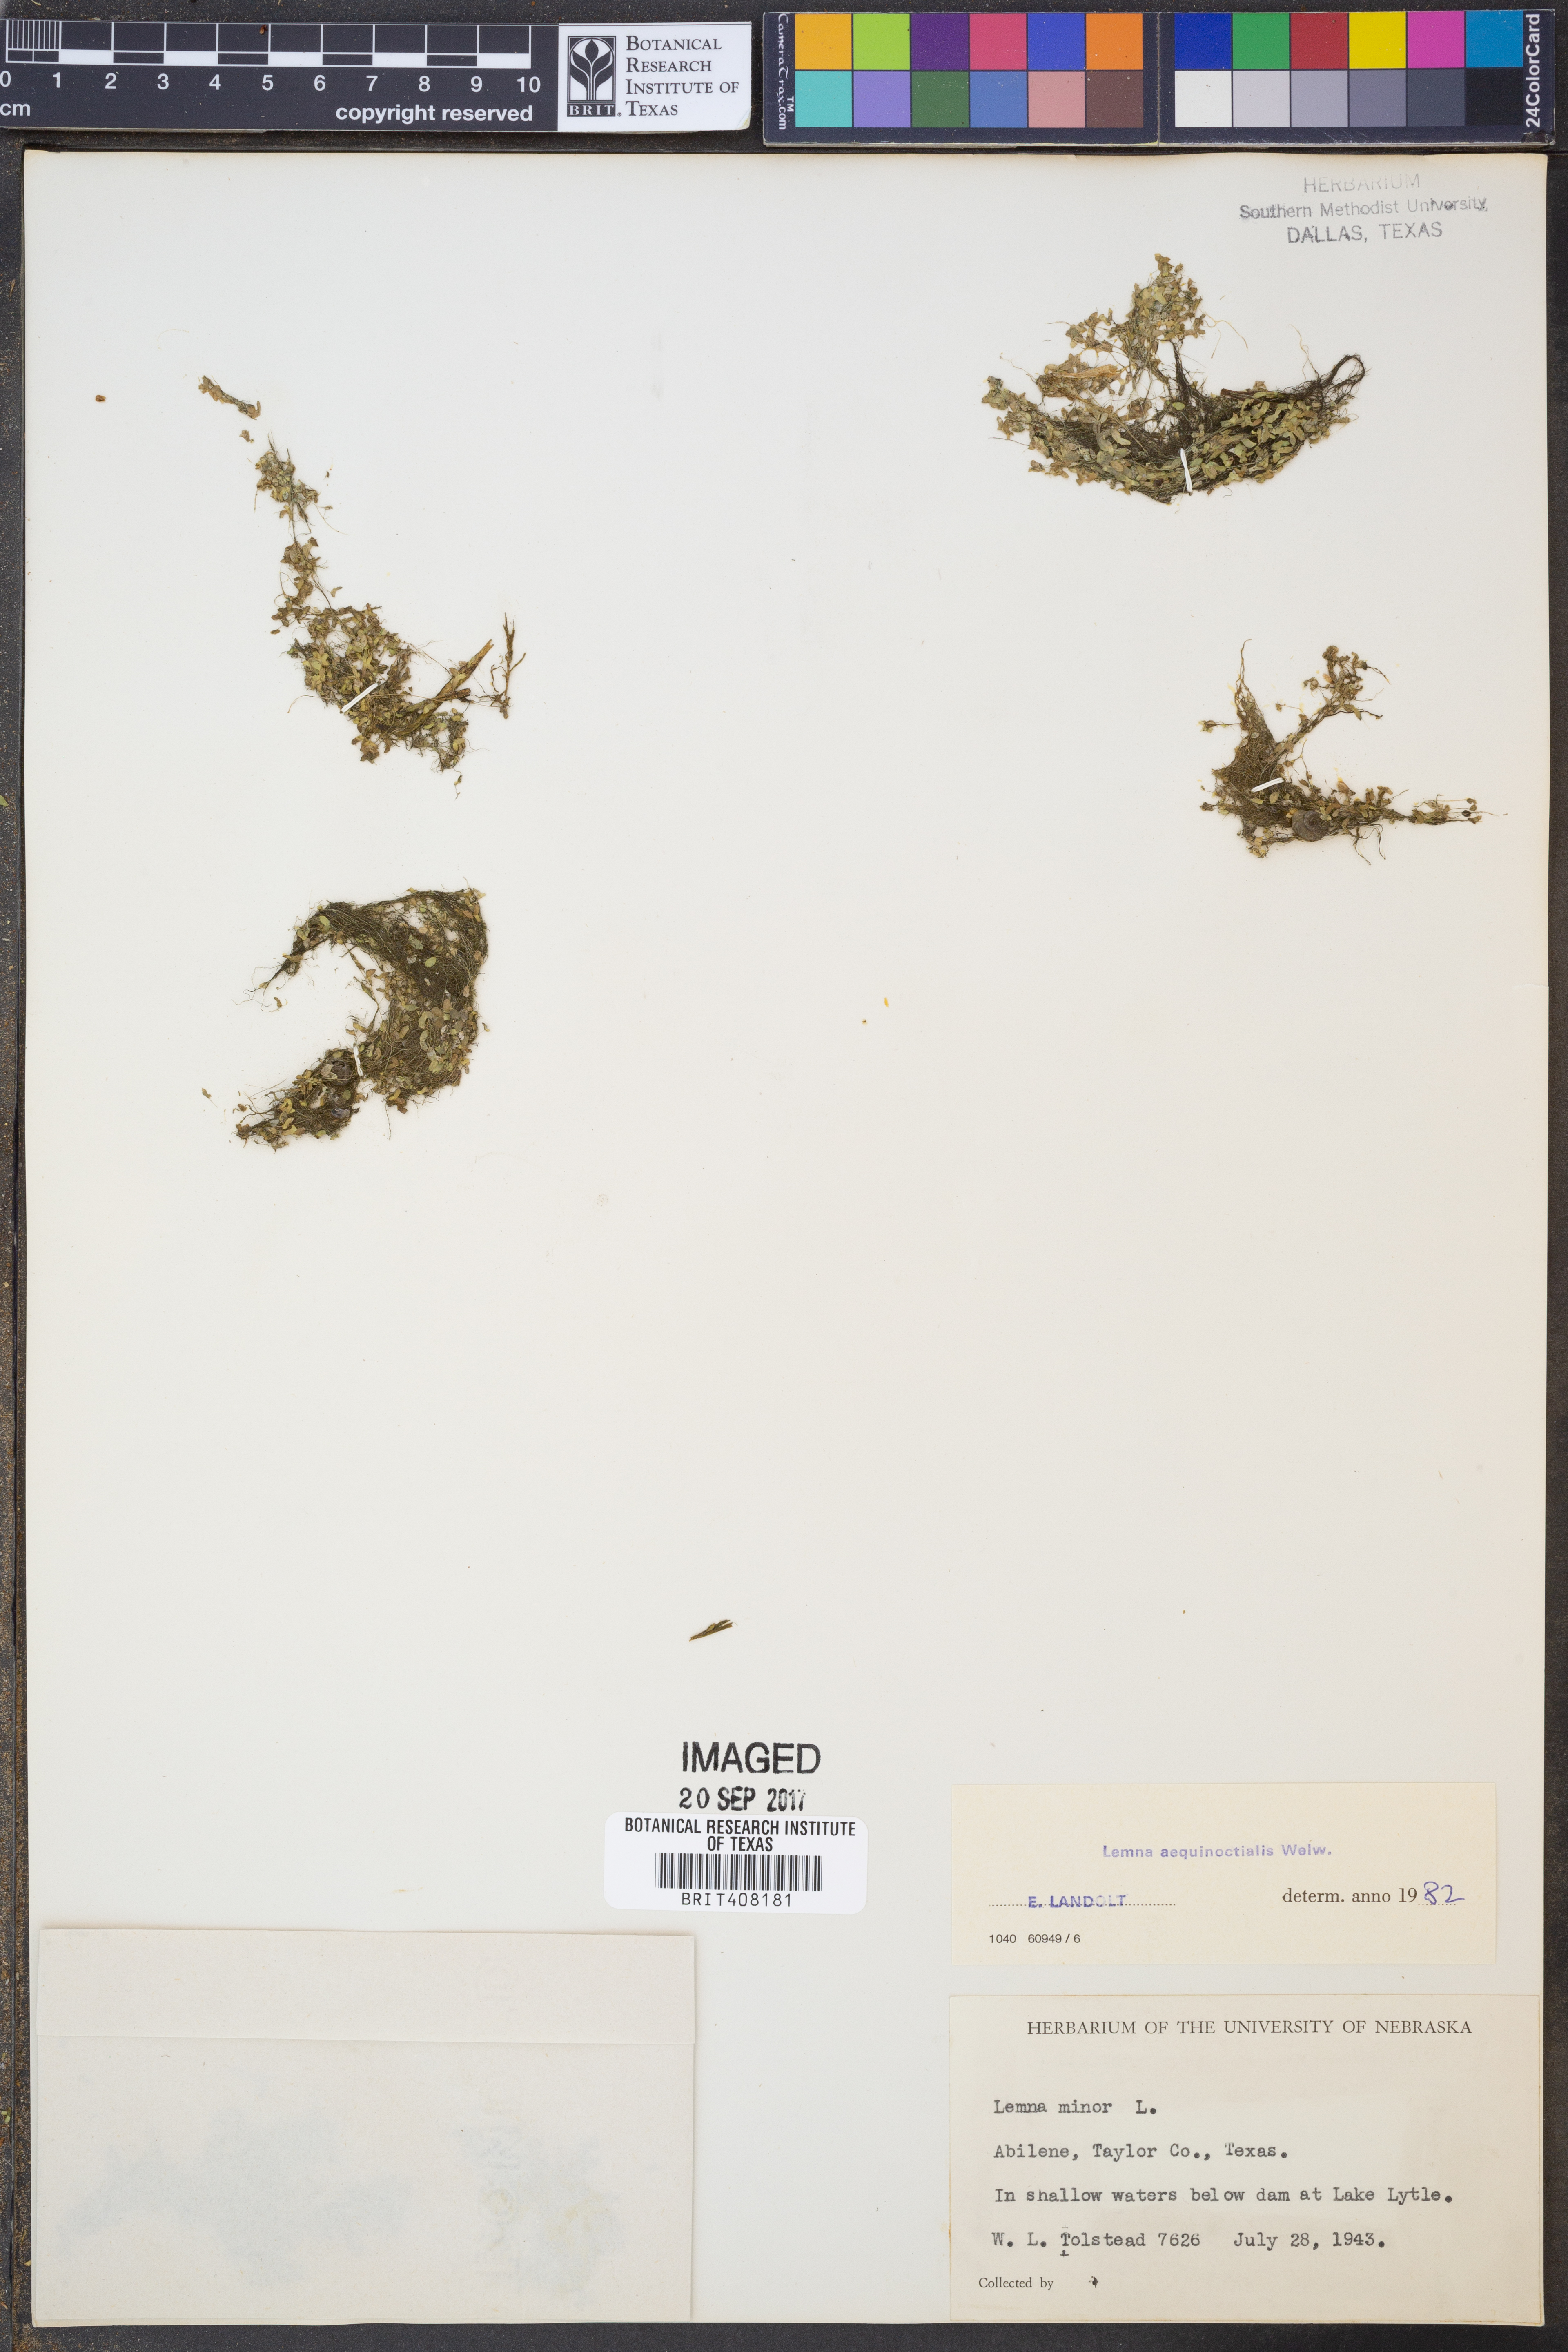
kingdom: Plantae
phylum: Tracheophyta
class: Liliopsida
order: Alismatales
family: Araceae
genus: Lemna
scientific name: Lemna aequinoctialis
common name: Duckweed
